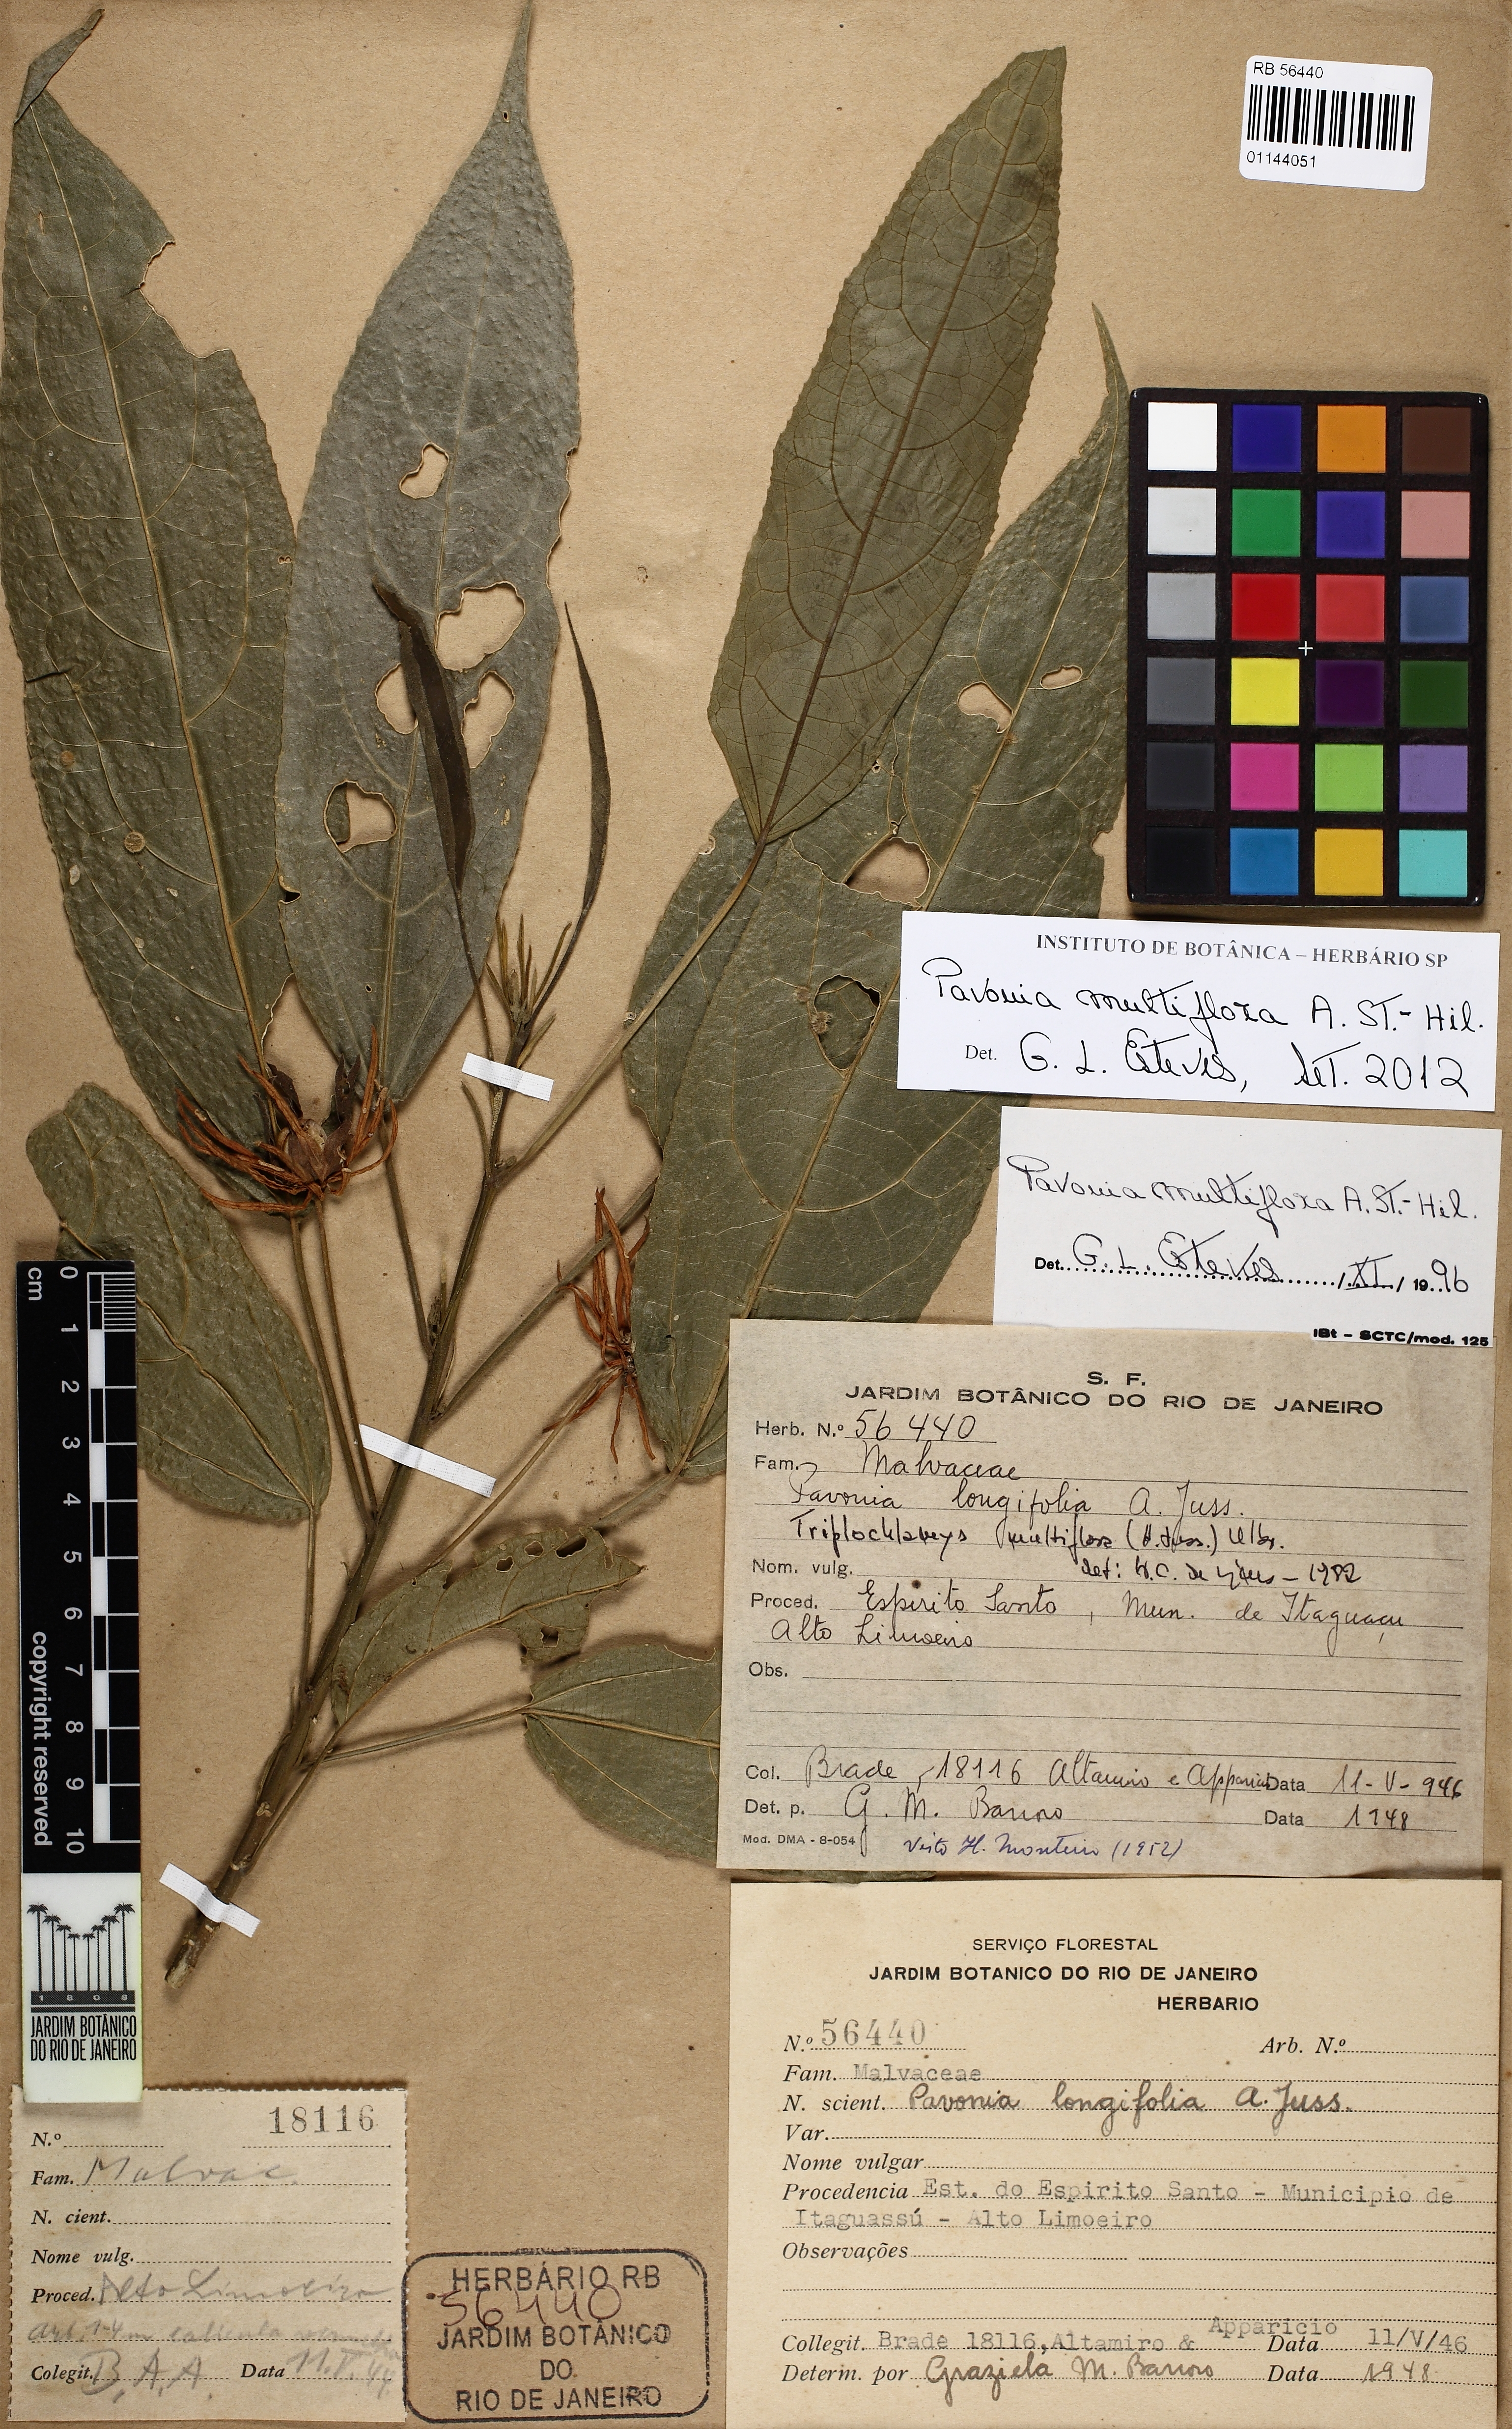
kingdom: Plantae
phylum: Tracheophyta
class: Magnoliopsida
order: Malvales
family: Malvaceae
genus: Pavonia
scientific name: Pavonia multiflora
